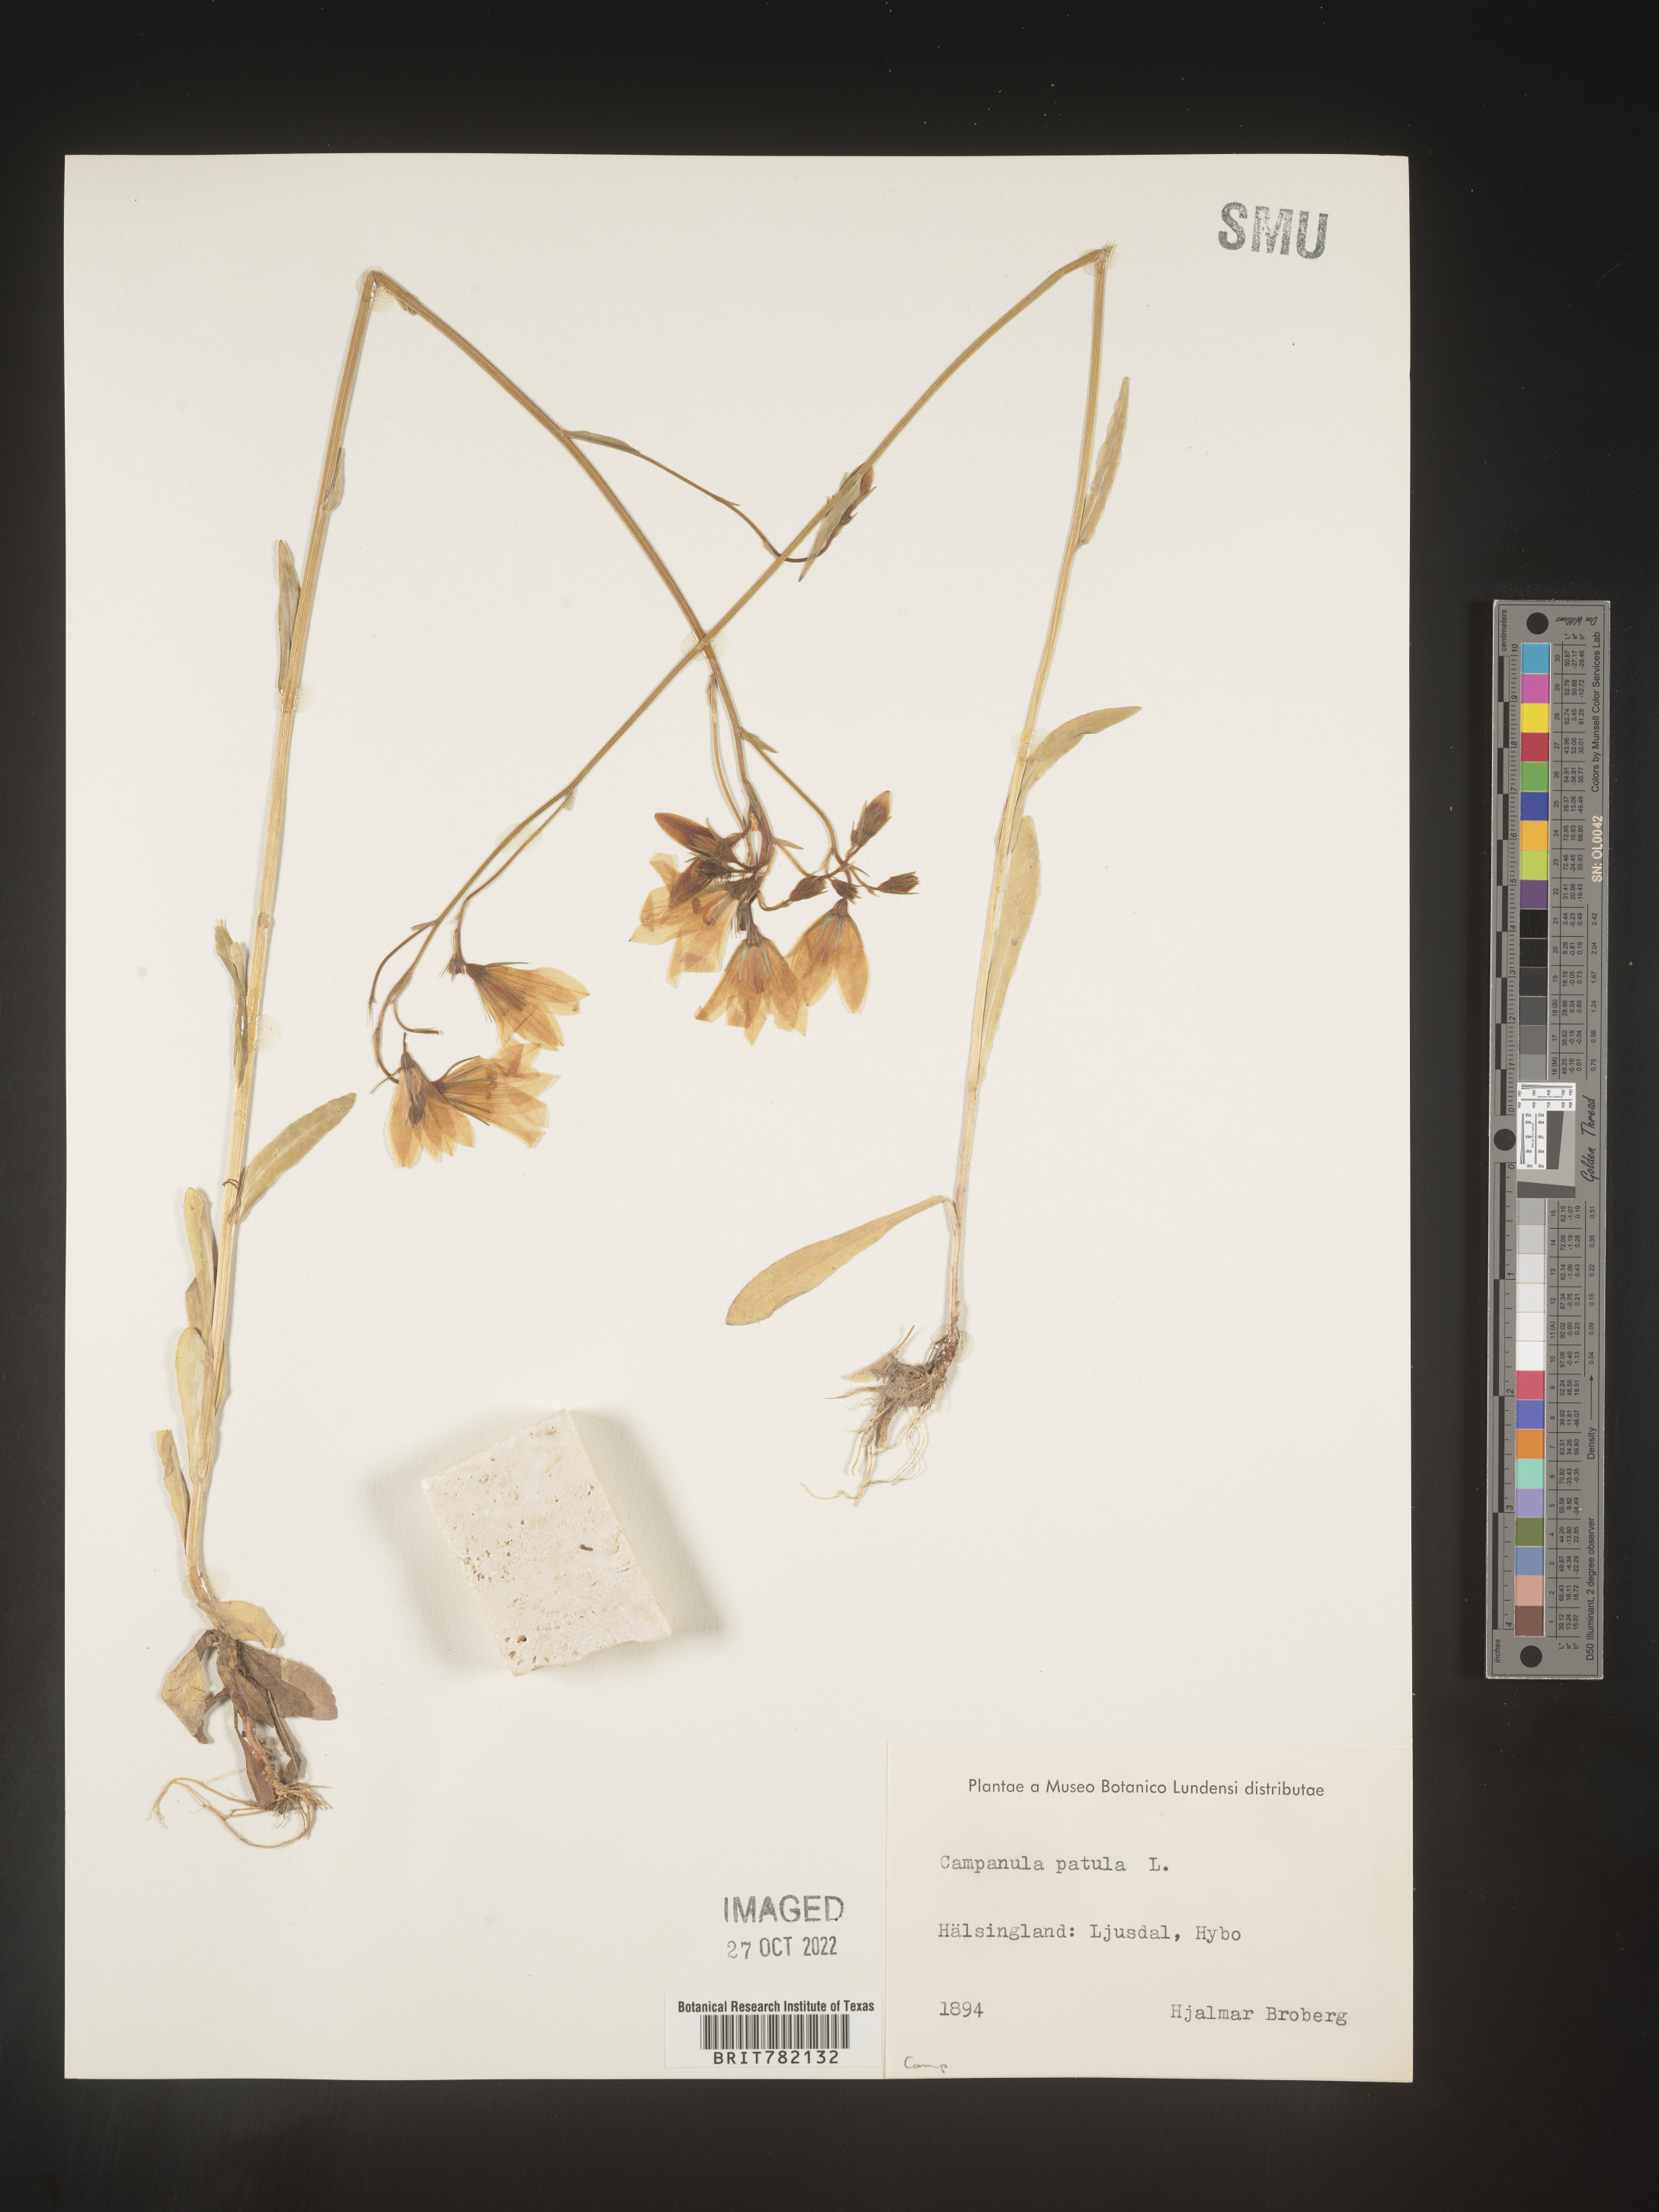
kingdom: Plantae
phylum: Tracheophyta
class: Magnoliopsida
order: Asterales
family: Campanulaceae
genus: Campanula
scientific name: Campanula
